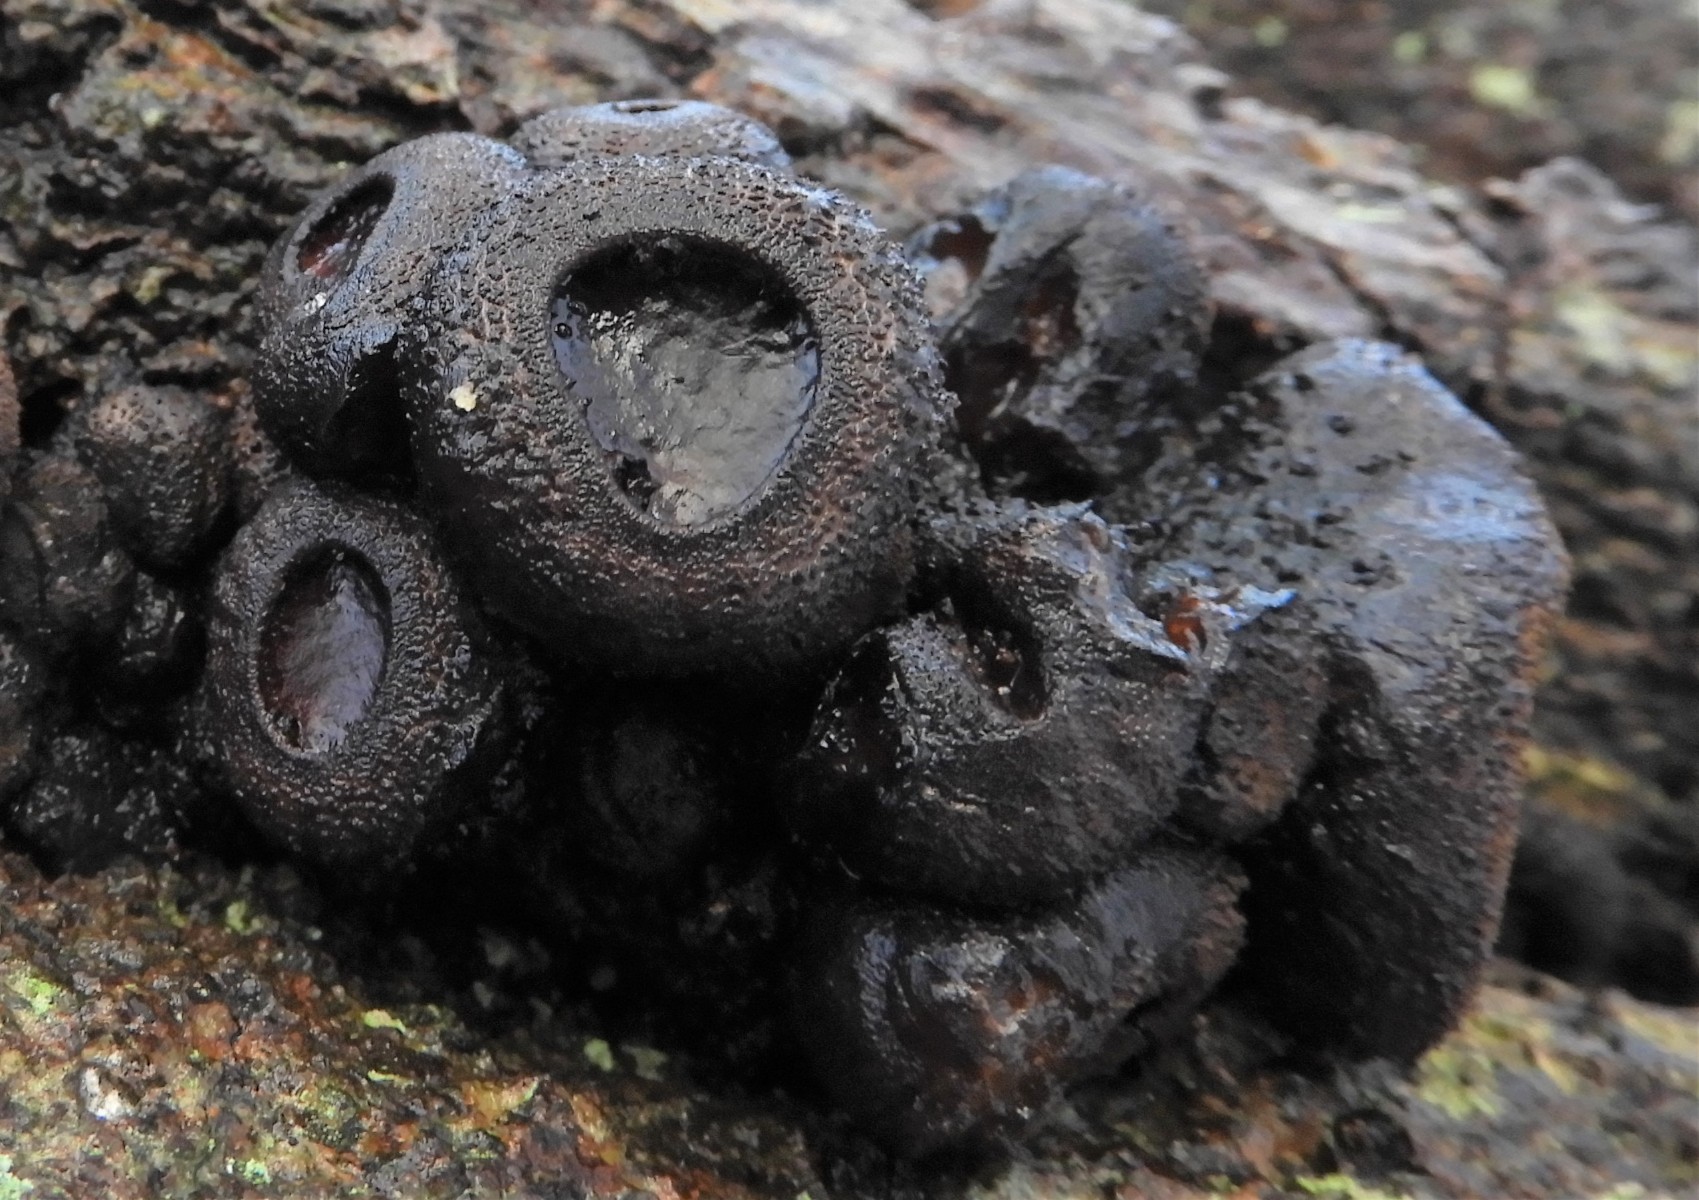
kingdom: Fungi
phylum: Ascomycota
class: Leotiomycetes
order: Phacidiales
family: Phacidiaceae
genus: Bulgaria
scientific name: Bulgaria inquinans
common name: afsmittende topsvamp
